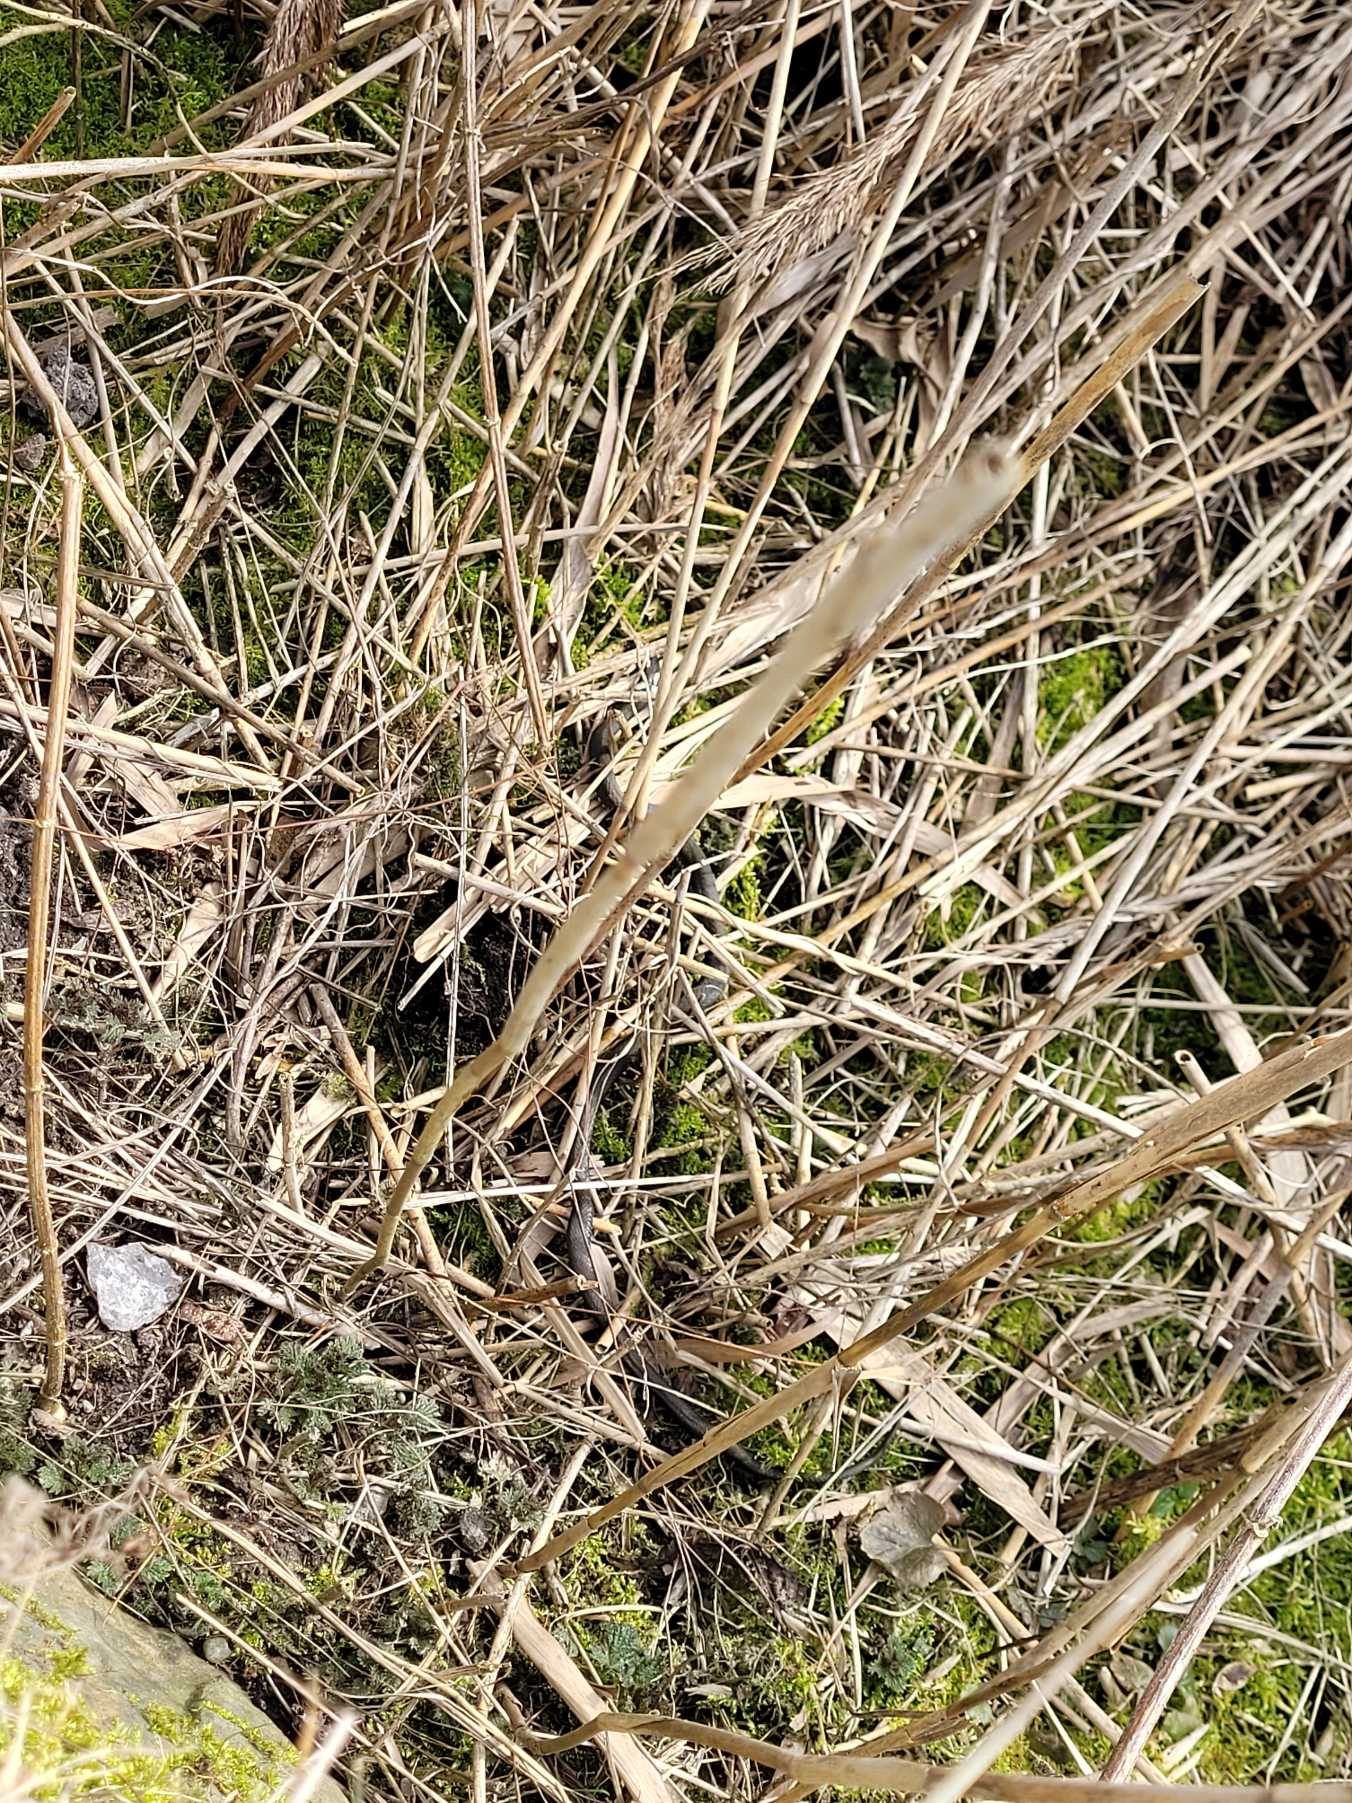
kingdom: Animalia
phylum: Chordata
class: Squamata
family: Colubridae
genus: Natrix
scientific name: Natrix natrix
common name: Snog
